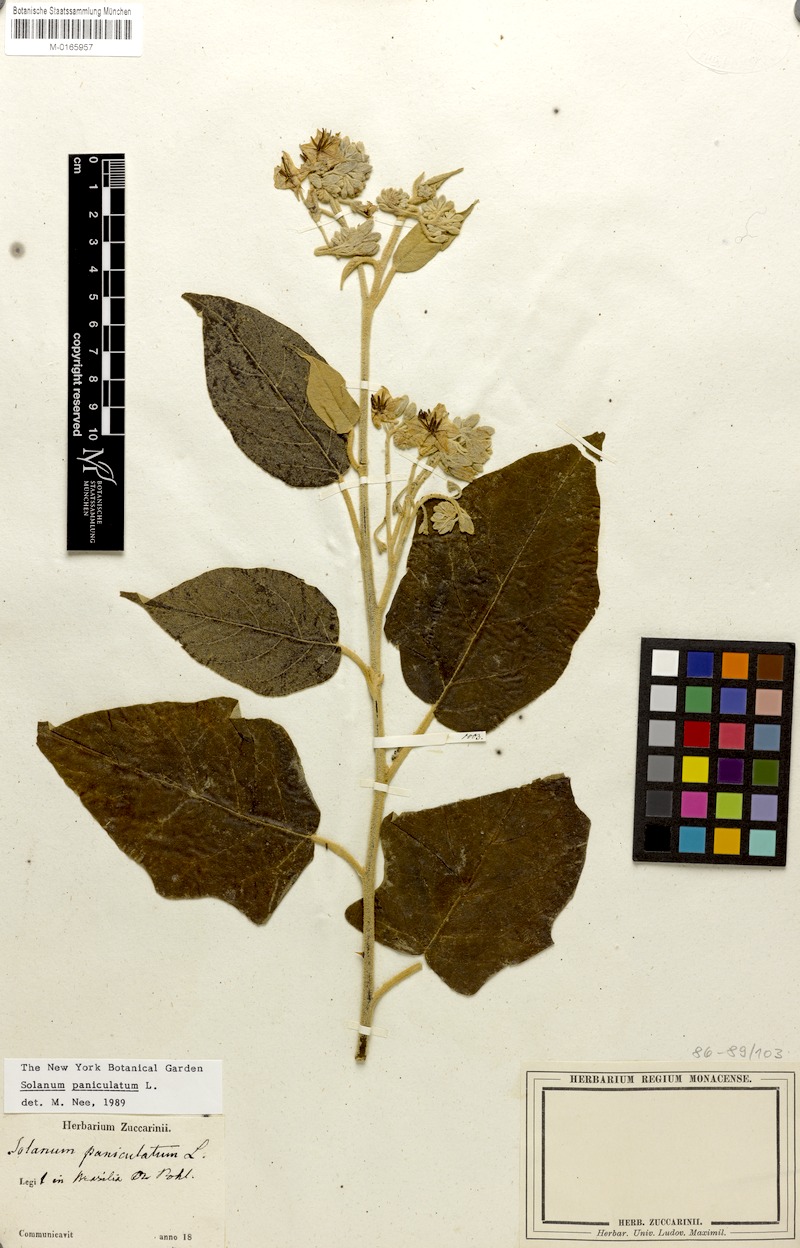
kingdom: Plantae
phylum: Tracheophyta
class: Magnoliopsida
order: Solanales
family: Solanaceae
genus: Solanum
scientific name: Solanum paniculatum
